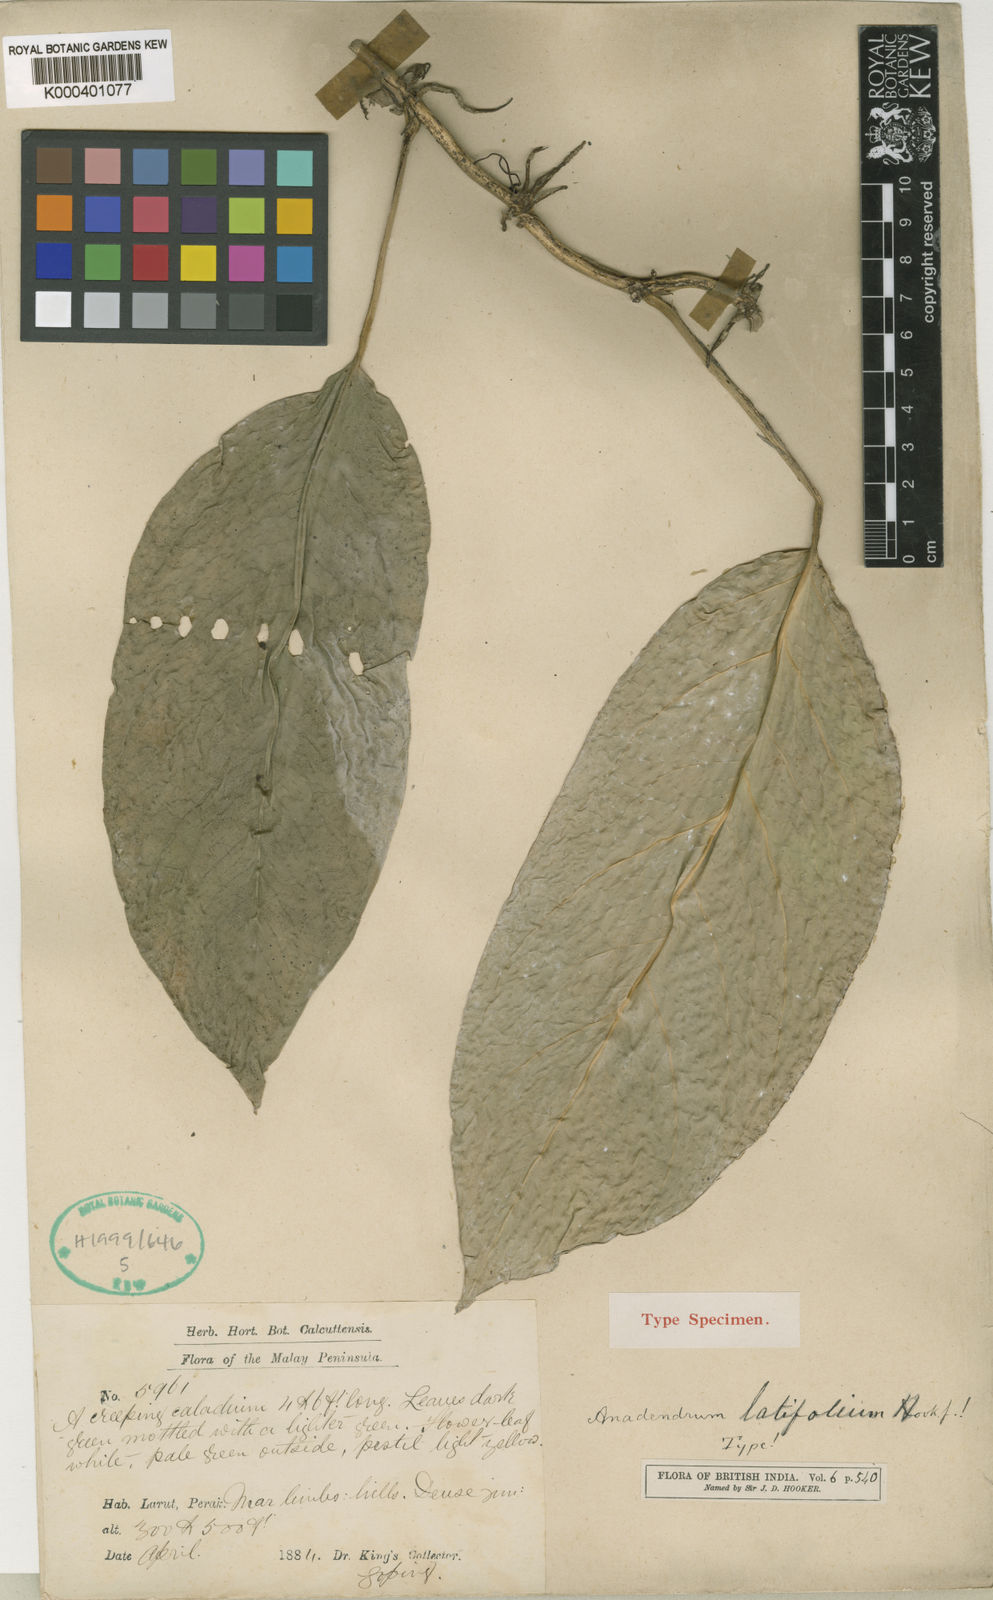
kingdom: Plantae
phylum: Tracheophyta
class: Liliopsida
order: Alismatales
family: Araceae
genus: Anadendrum
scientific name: Anadendrum latifolium
